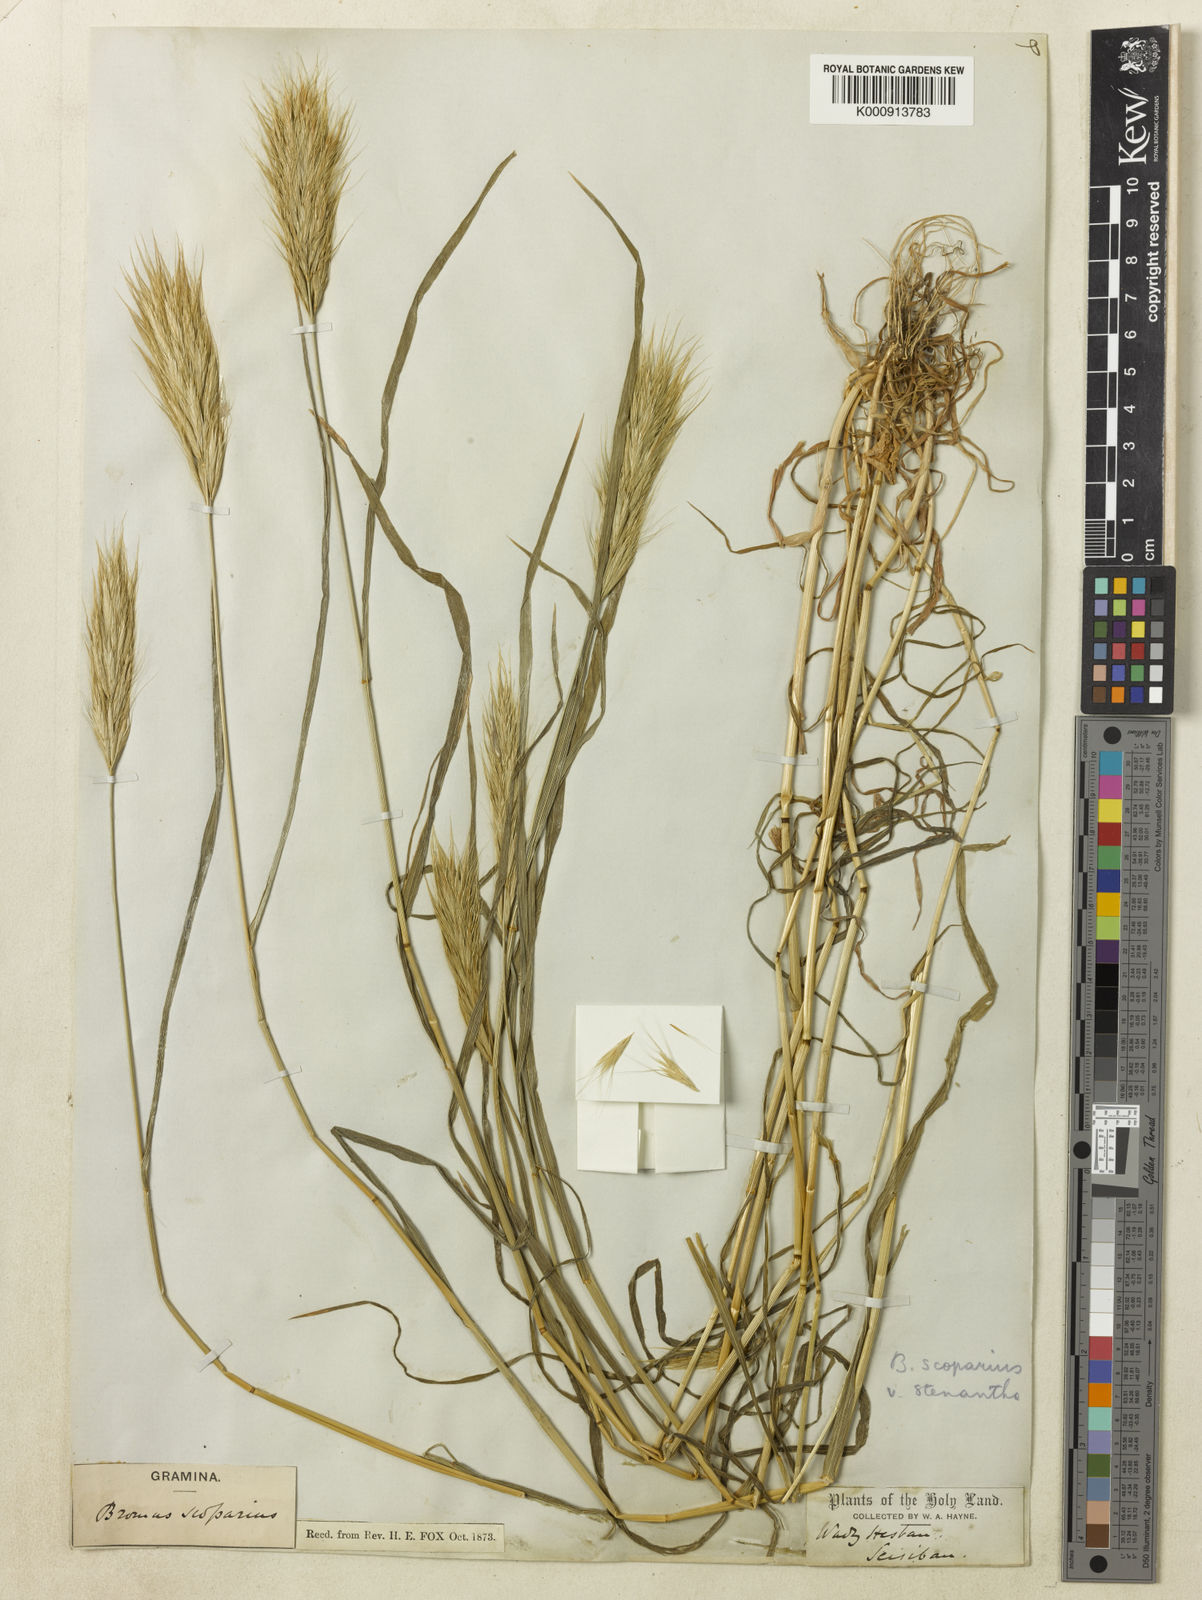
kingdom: Plantae
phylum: Tracheophyta
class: Liliopsida
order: Poales
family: Poaceae
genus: Bromus
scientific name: Bromus scoparius
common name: Broom brome
